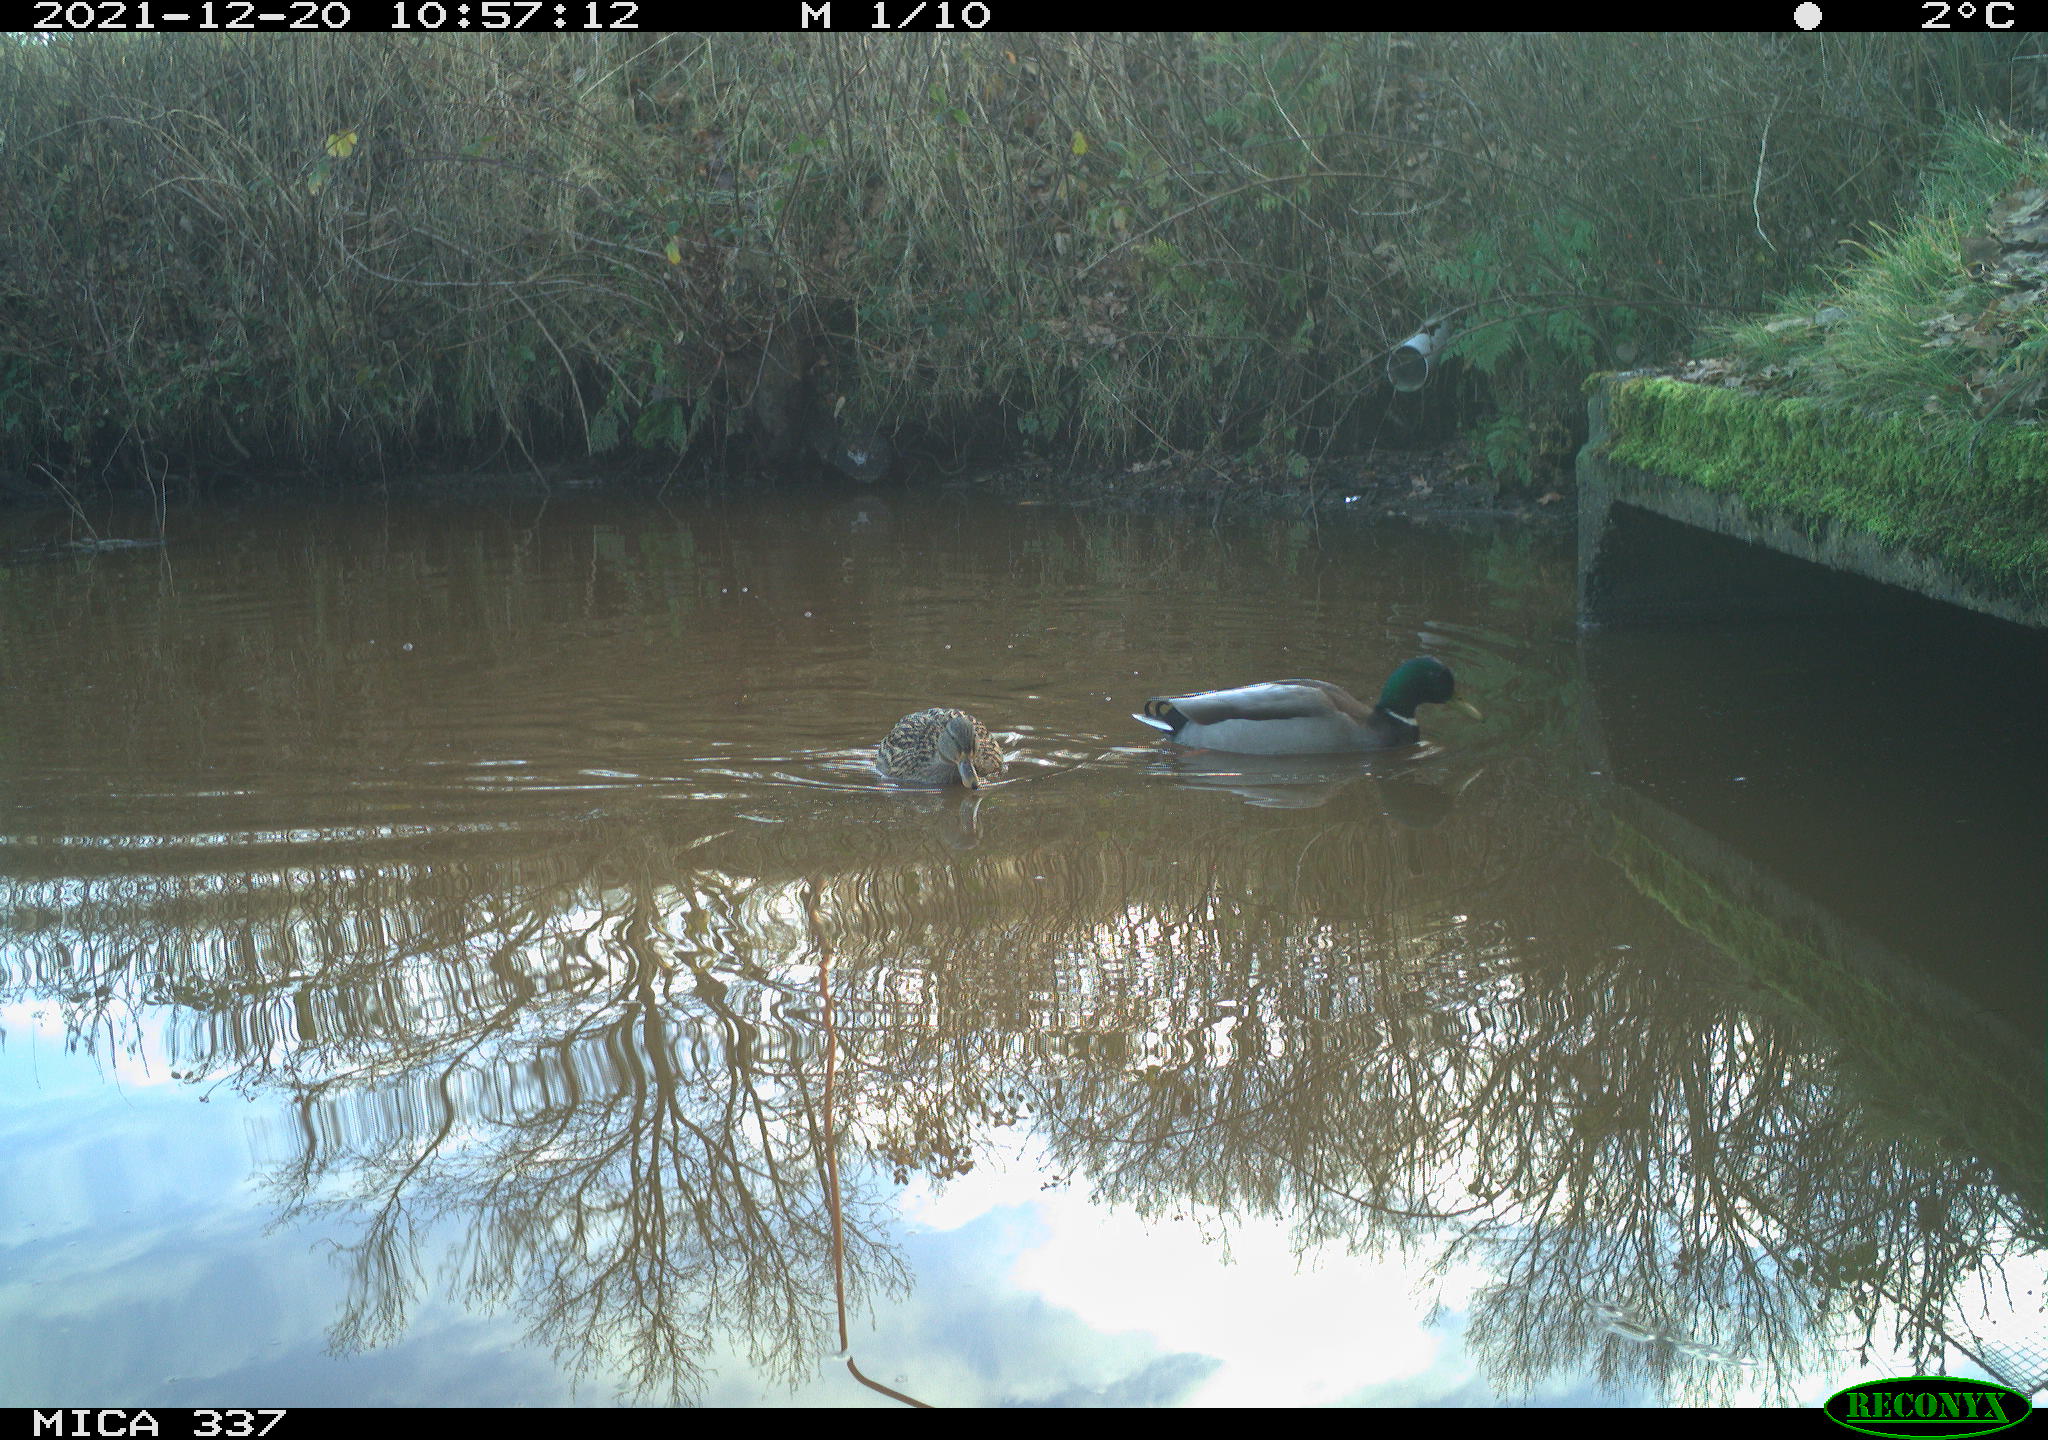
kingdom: Animalia
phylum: Chordata
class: Aves
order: Anseriformes
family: Anatidae
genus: Anas
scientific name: Anas platyrhynchos
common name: Mallard
